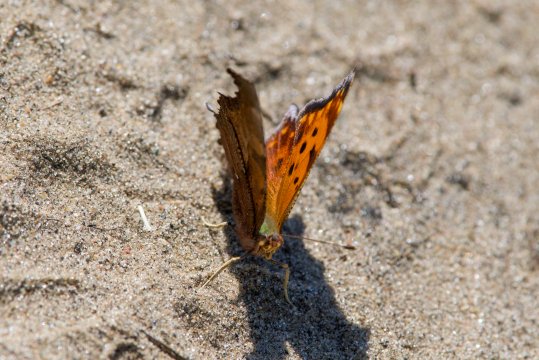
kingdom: Animalia
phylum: Arthropoda
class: Insecta
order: Lepidoptera
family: Nymphalidae
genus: Polygonia
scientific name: Polygonia comma
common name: Eastern Comma
